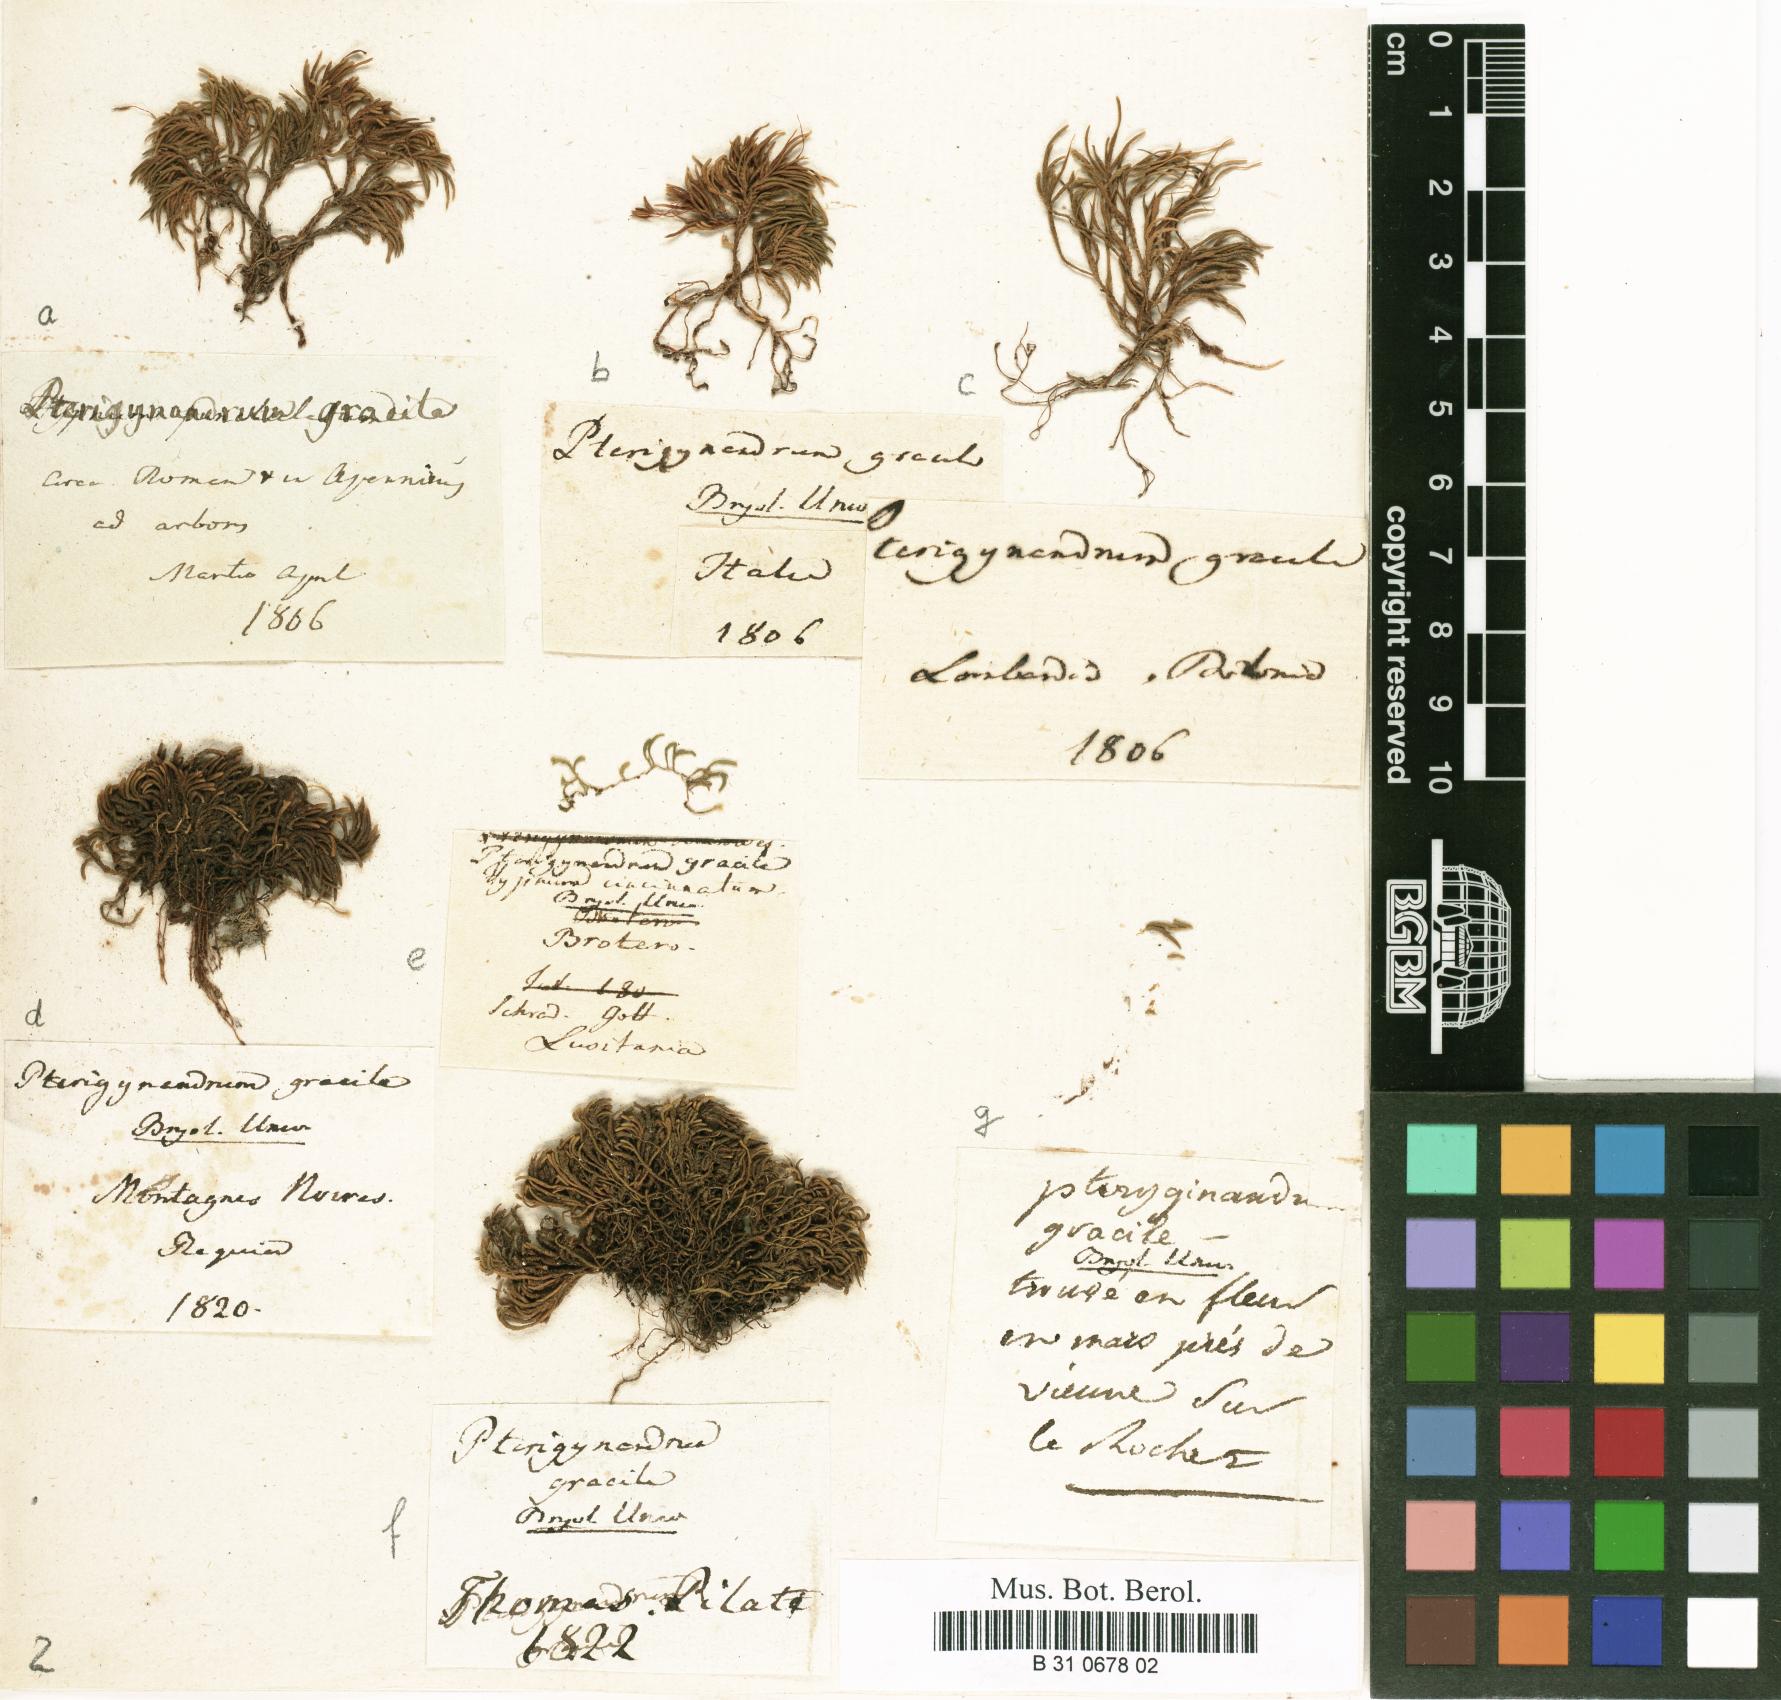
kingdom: Plantae
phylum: Bryophyta
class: Bryopsida
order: Hypnales
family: Lembophyllaceae
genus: Nogopterium
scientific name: Nogopterium gracile
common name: Bird's-foot wing-moss
